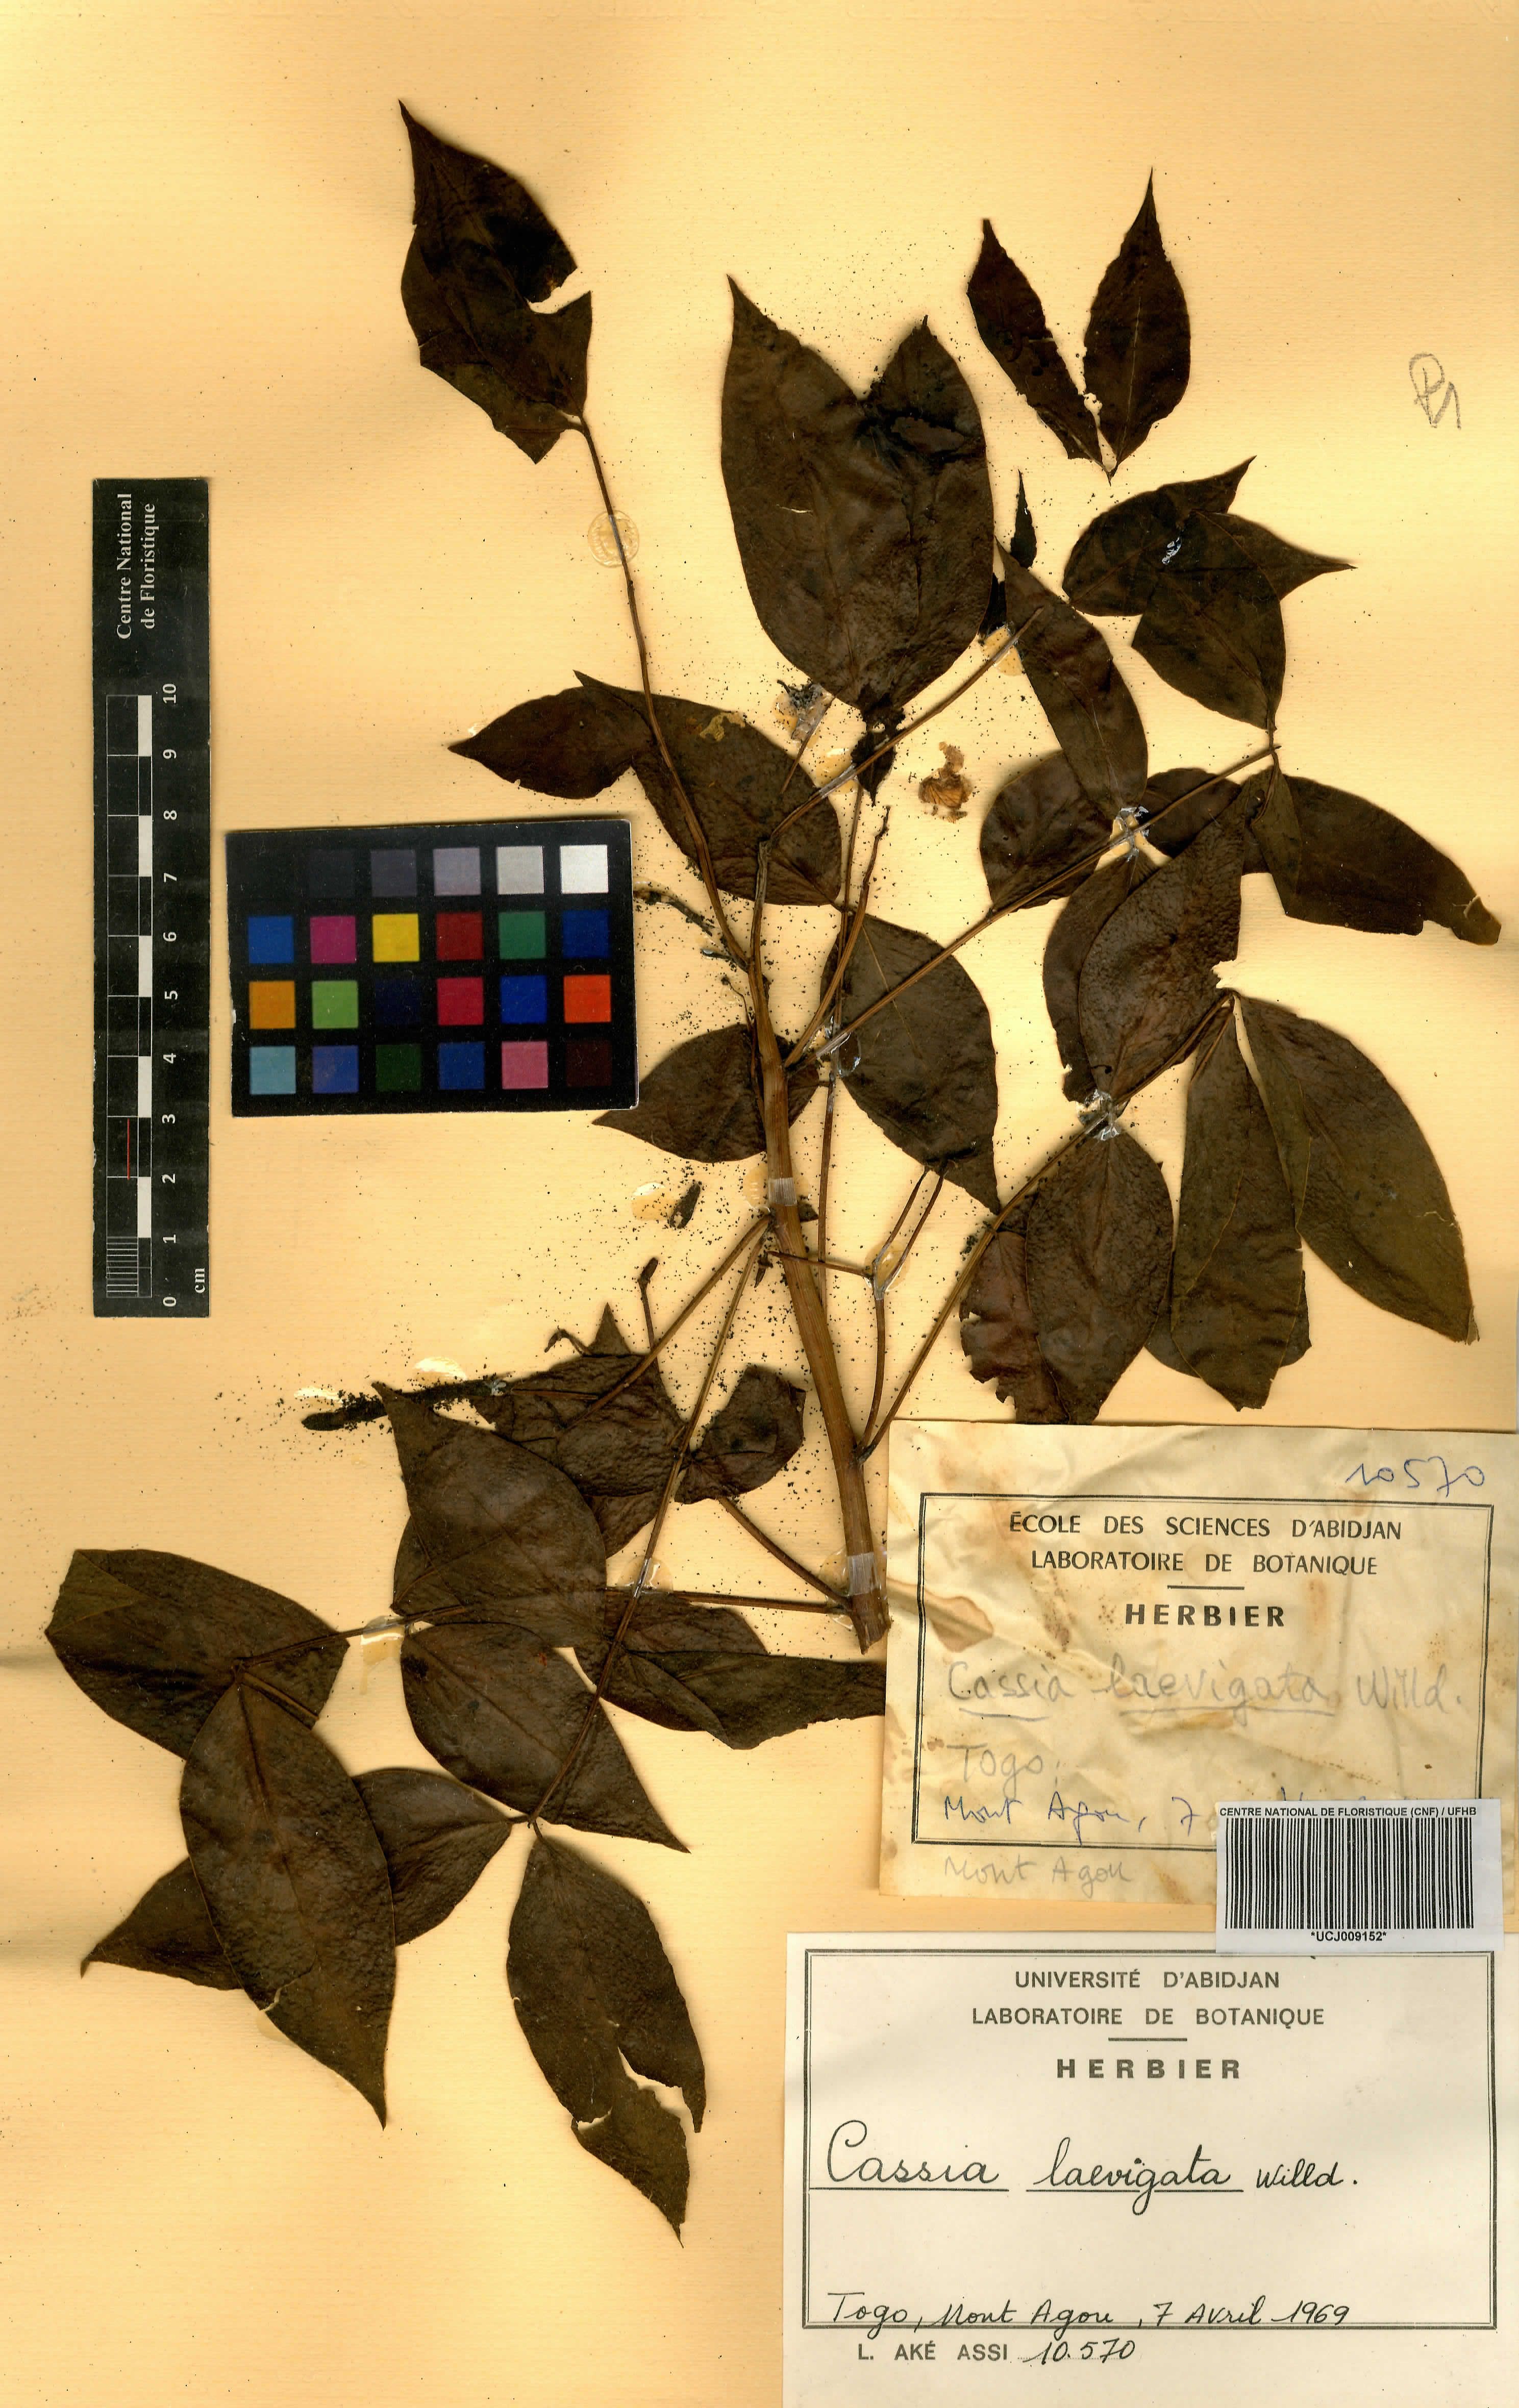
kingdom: Plantae
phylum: Tracheophyta
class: Magnoliopsida
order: Fabales
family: Fabaceae
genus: Senna
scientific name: Senna
